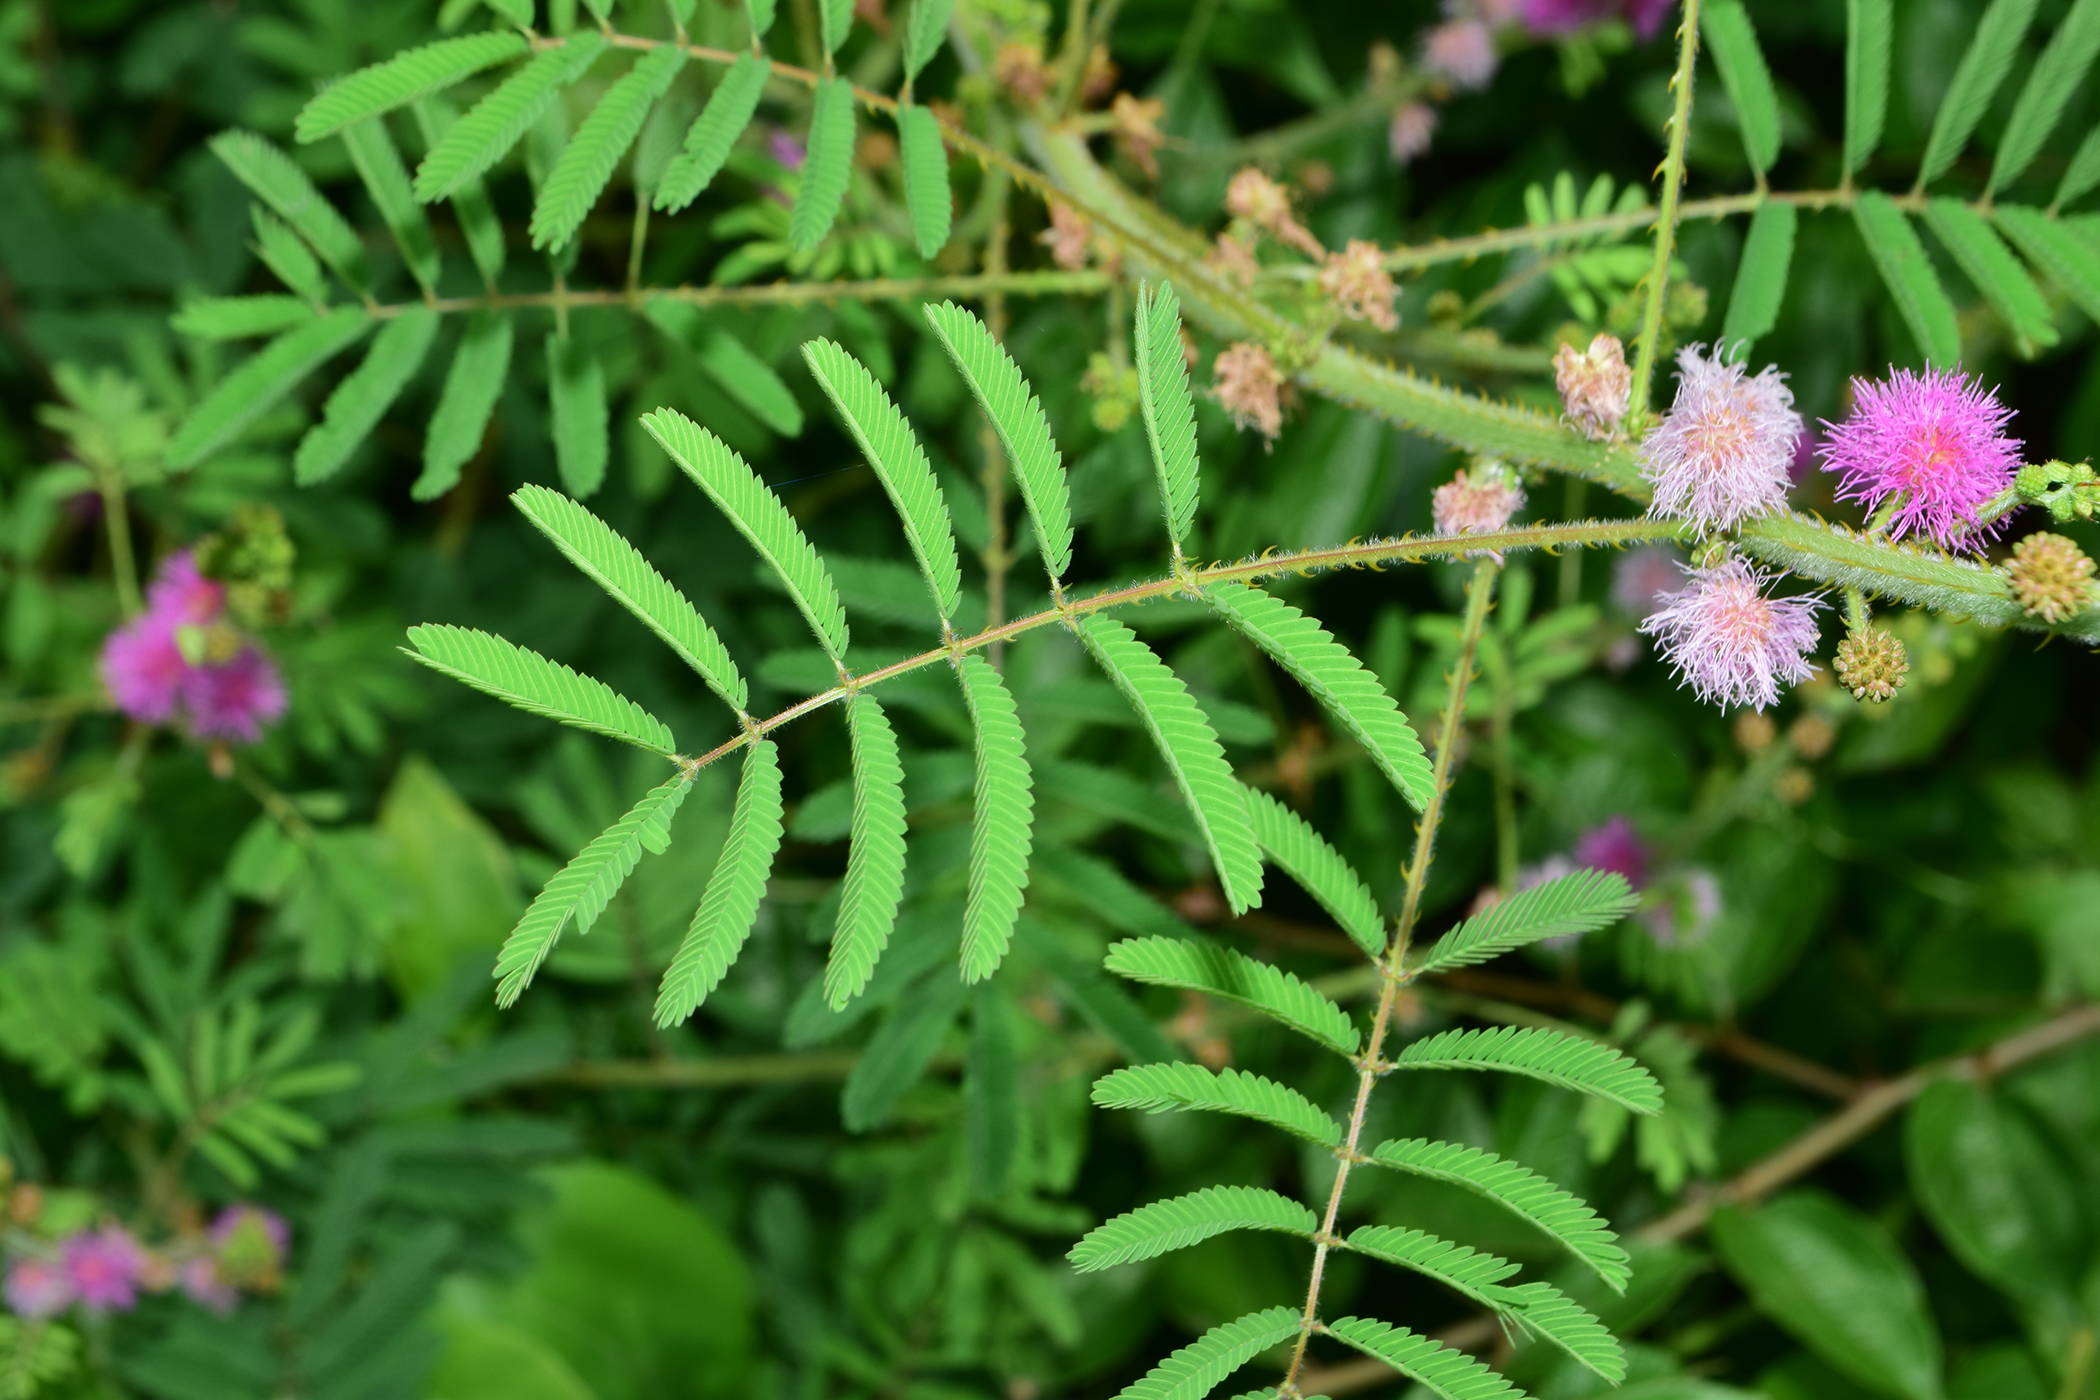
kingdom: Plantae
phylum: Tracheophyta
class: Magnoliopsida
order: Fabales
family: Fabaceae
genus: Mimosa
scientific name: Mimosa diplotricha
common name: Giant sensitive-plant
